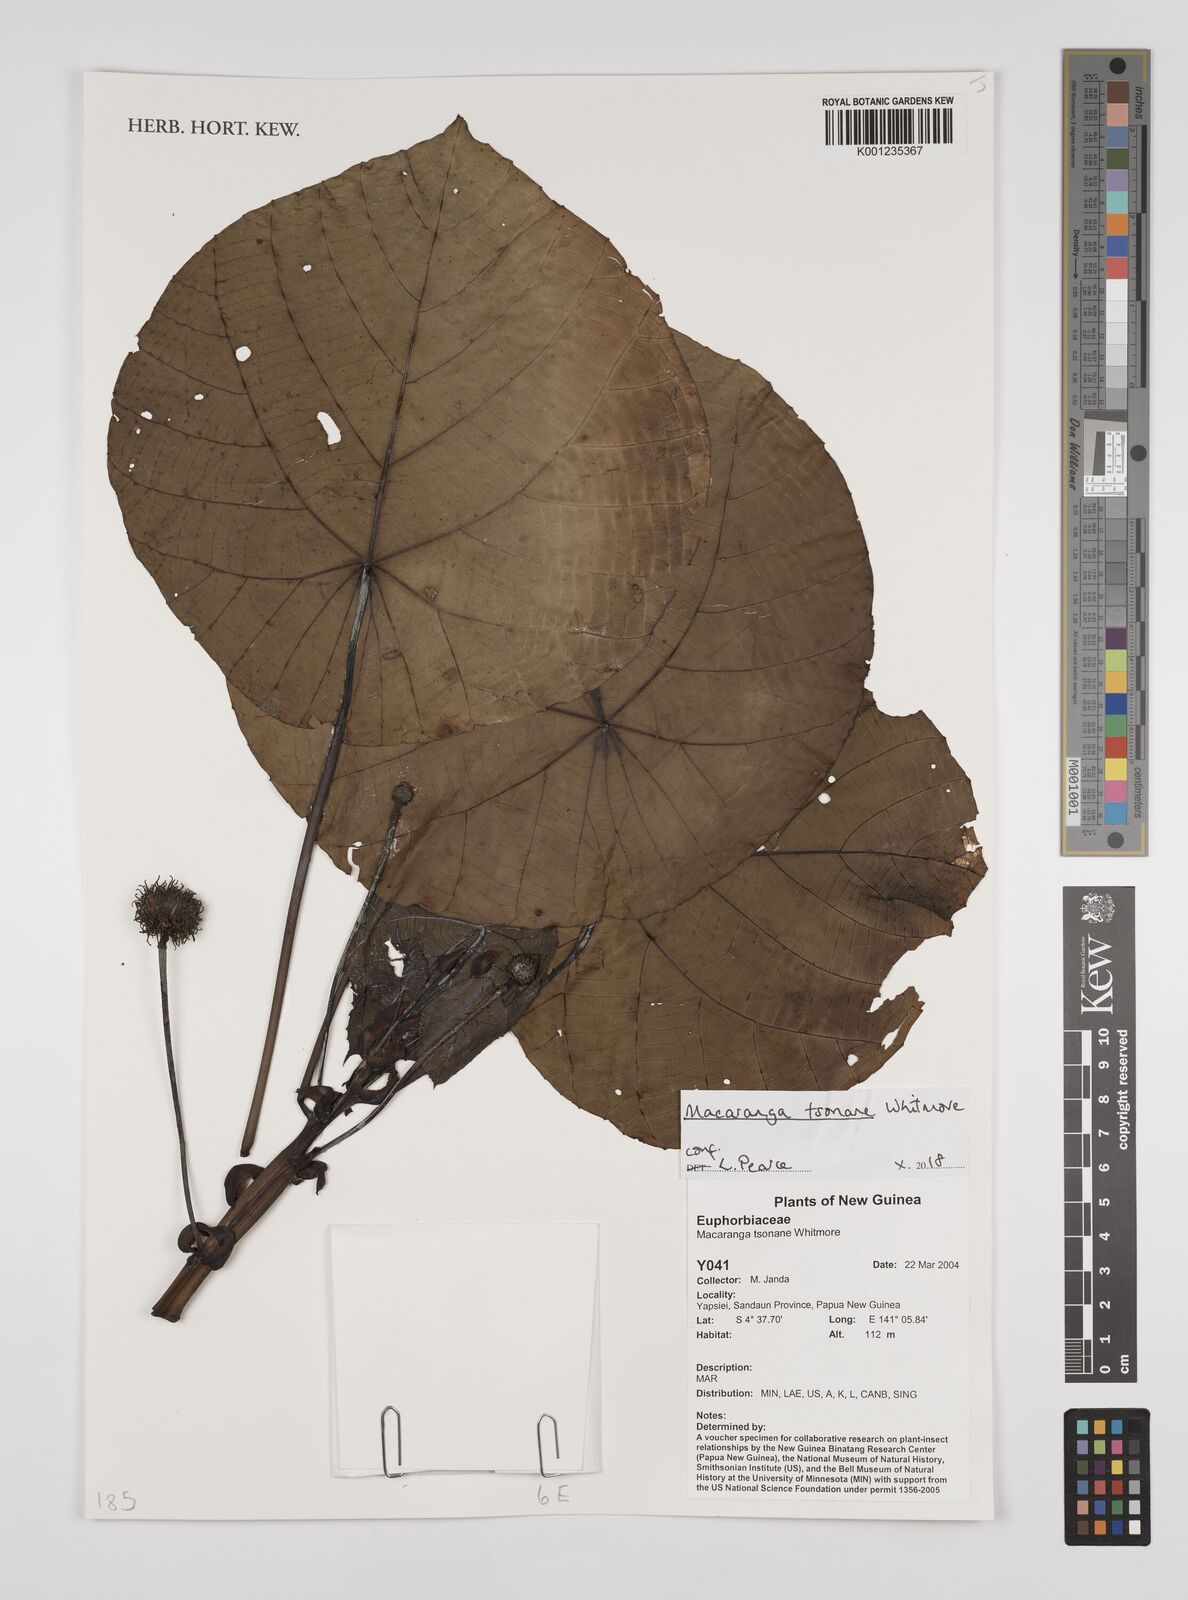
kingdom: Plantae
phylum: Tracheophyta
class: Magnoliopsida
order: Malpighiales
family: Euphorbiaceae
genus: Macaranga
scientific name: Macaranga tsonane
